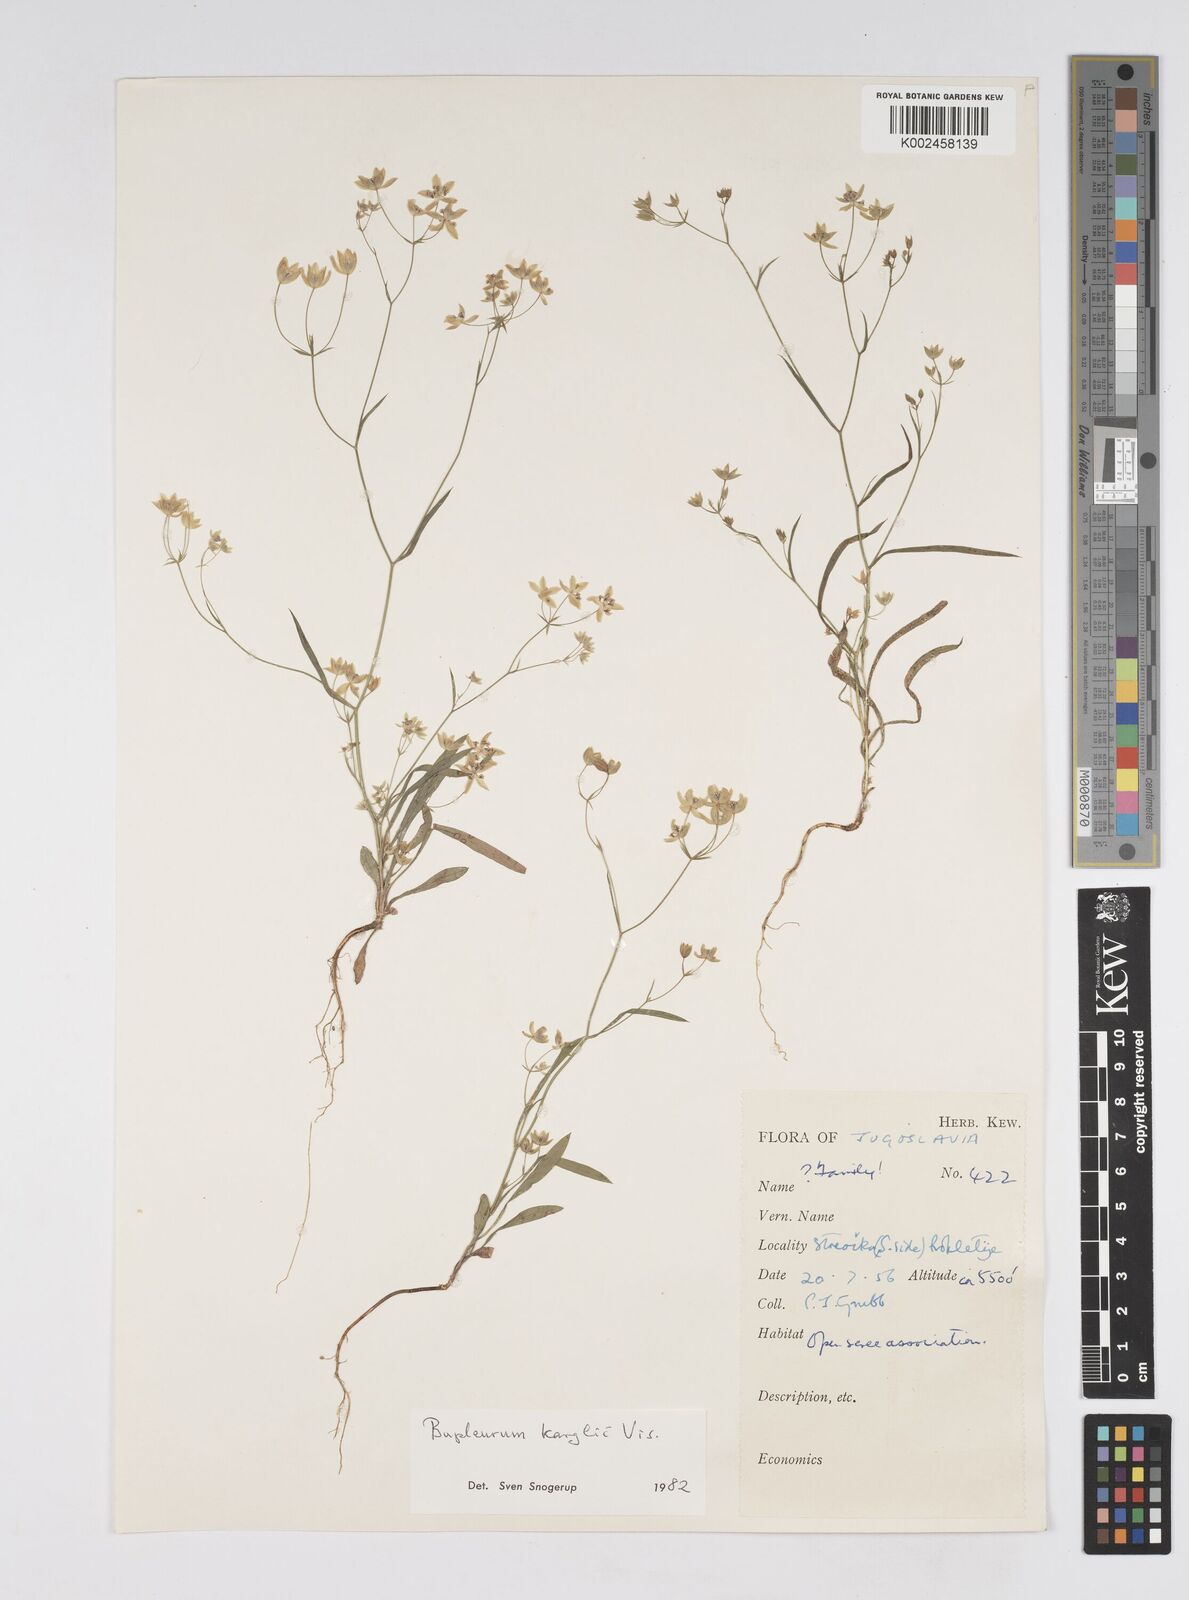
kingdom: Plantae
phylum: Tracheophyta
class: Magnoliopsida
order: Apiales
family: Apiaceae
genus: Bupleurum
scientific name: Bupleurum karglii
